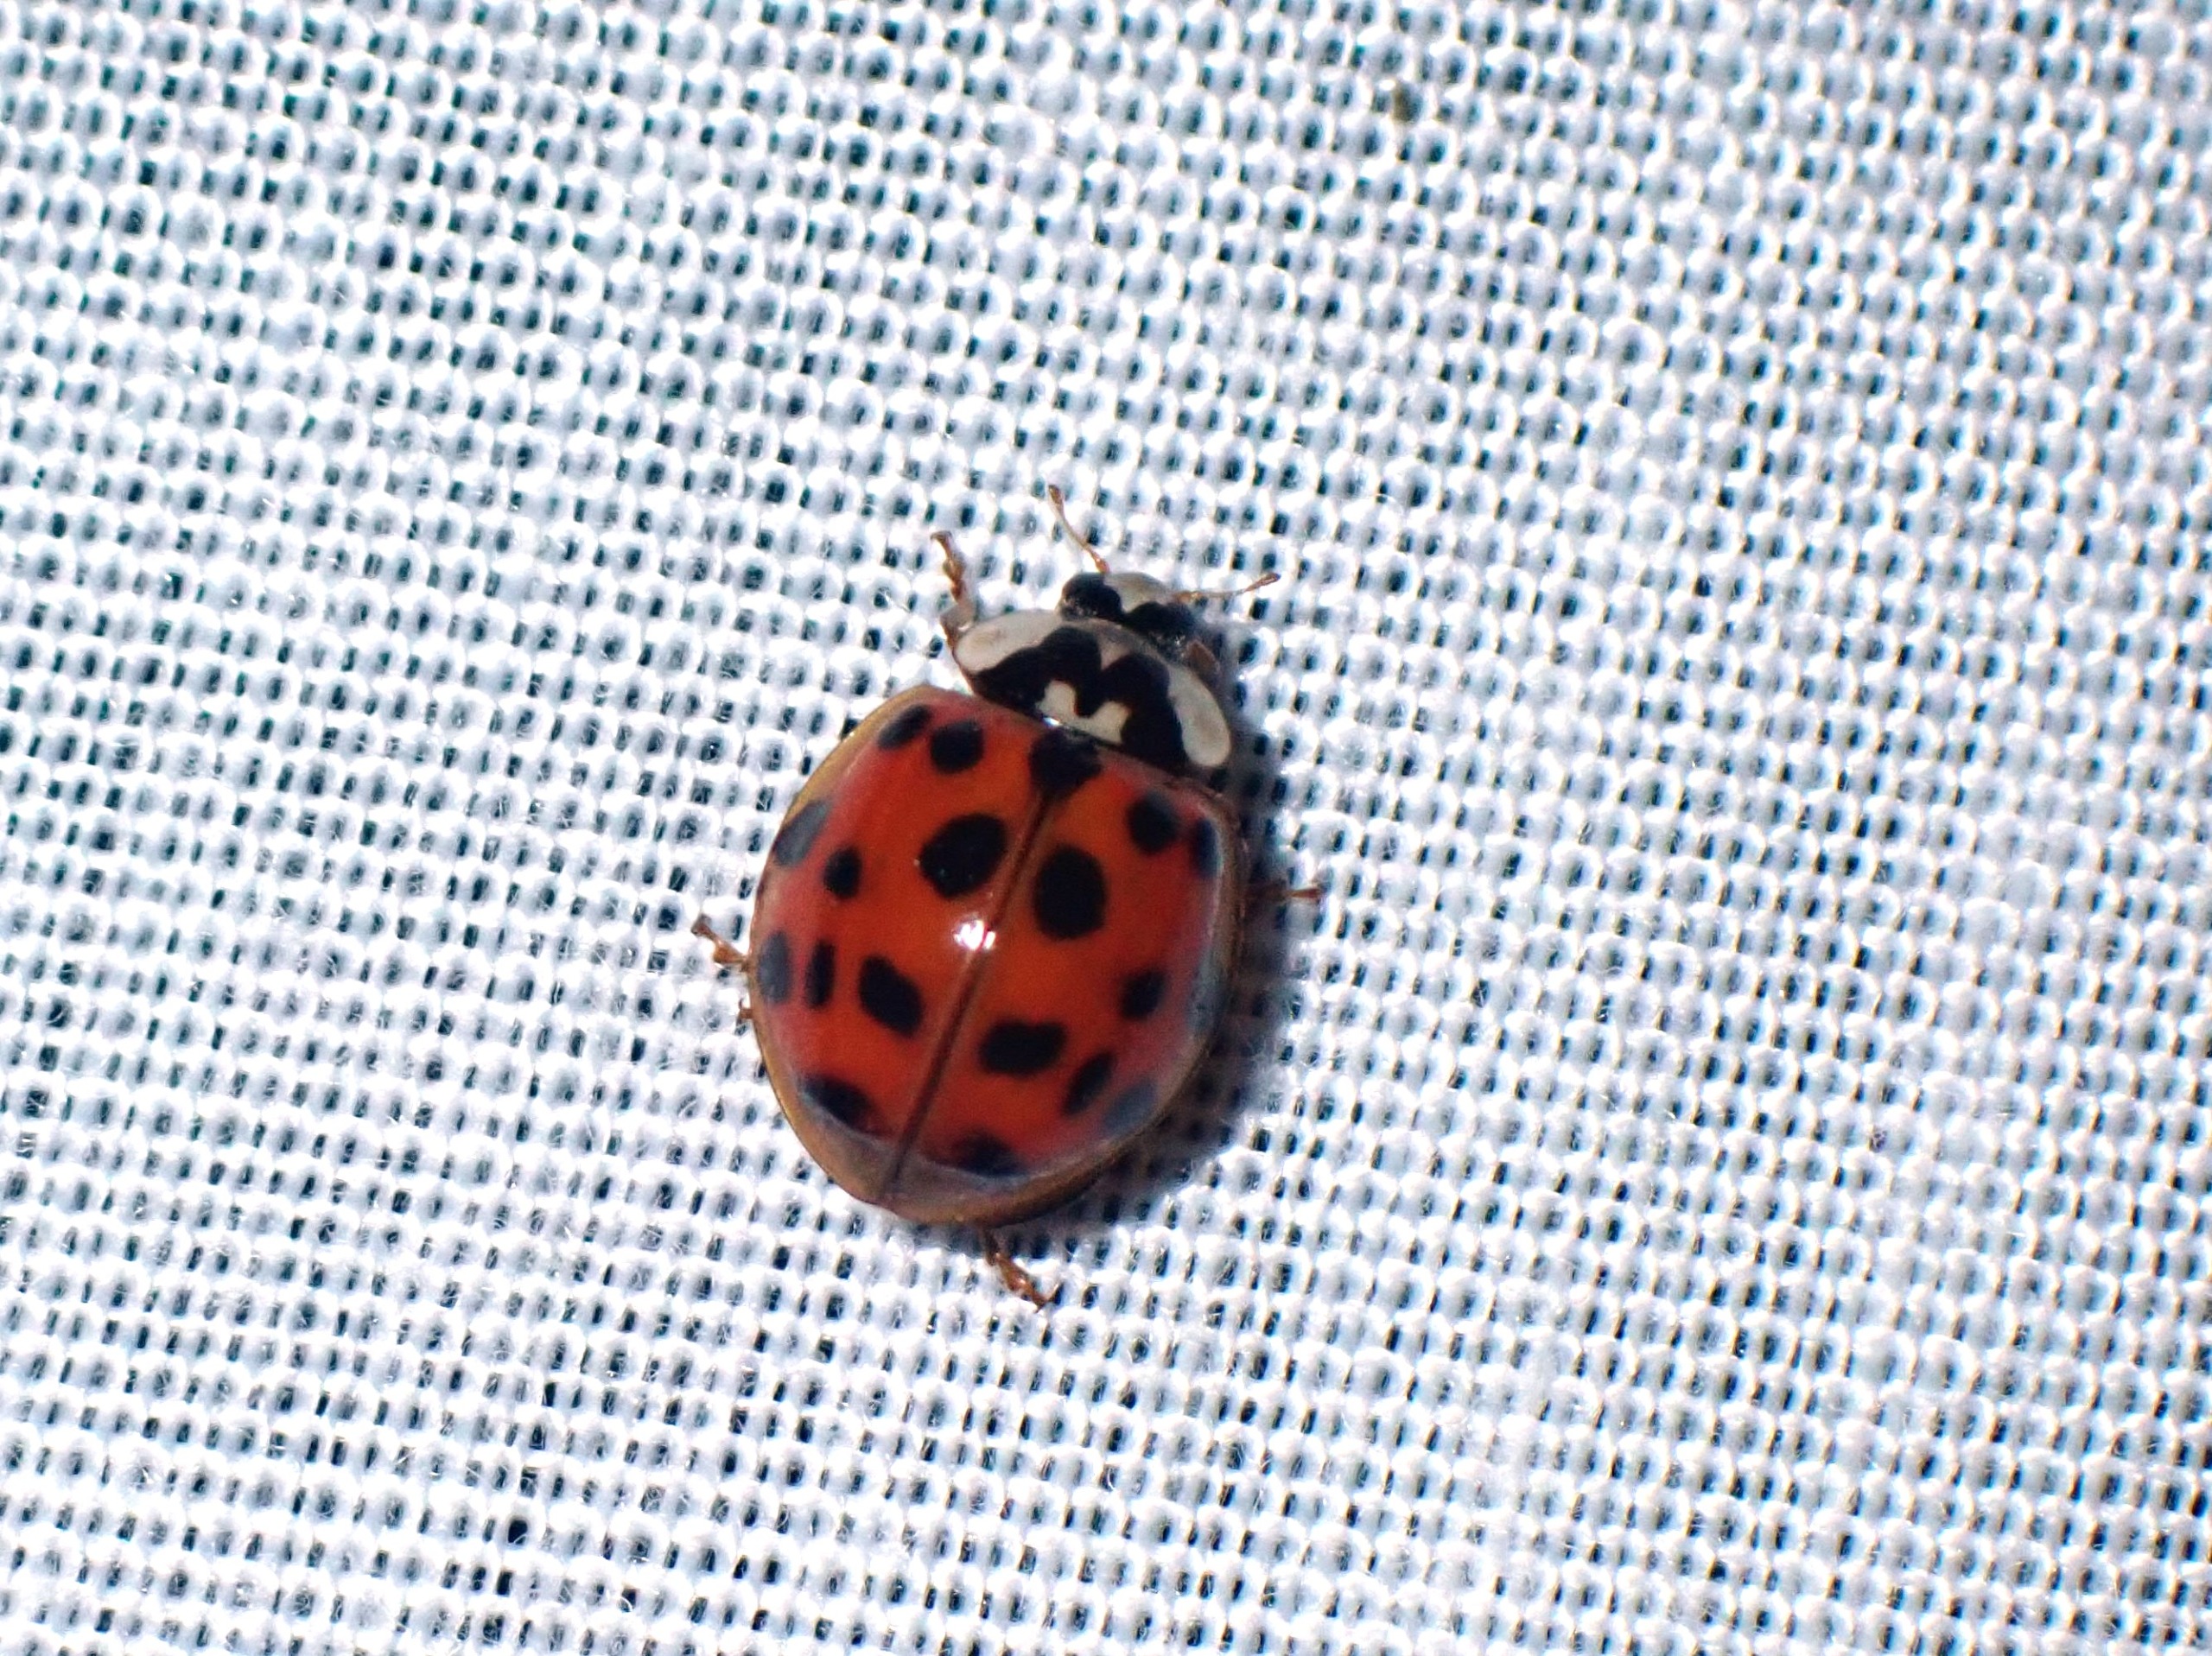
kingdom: Animalia
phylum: Arthropoda
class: Insecta
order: Coleoptera
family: Coccinellidae
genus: Harmonia
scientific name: Harmonia axyridis
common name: Harlekinmariehøne
